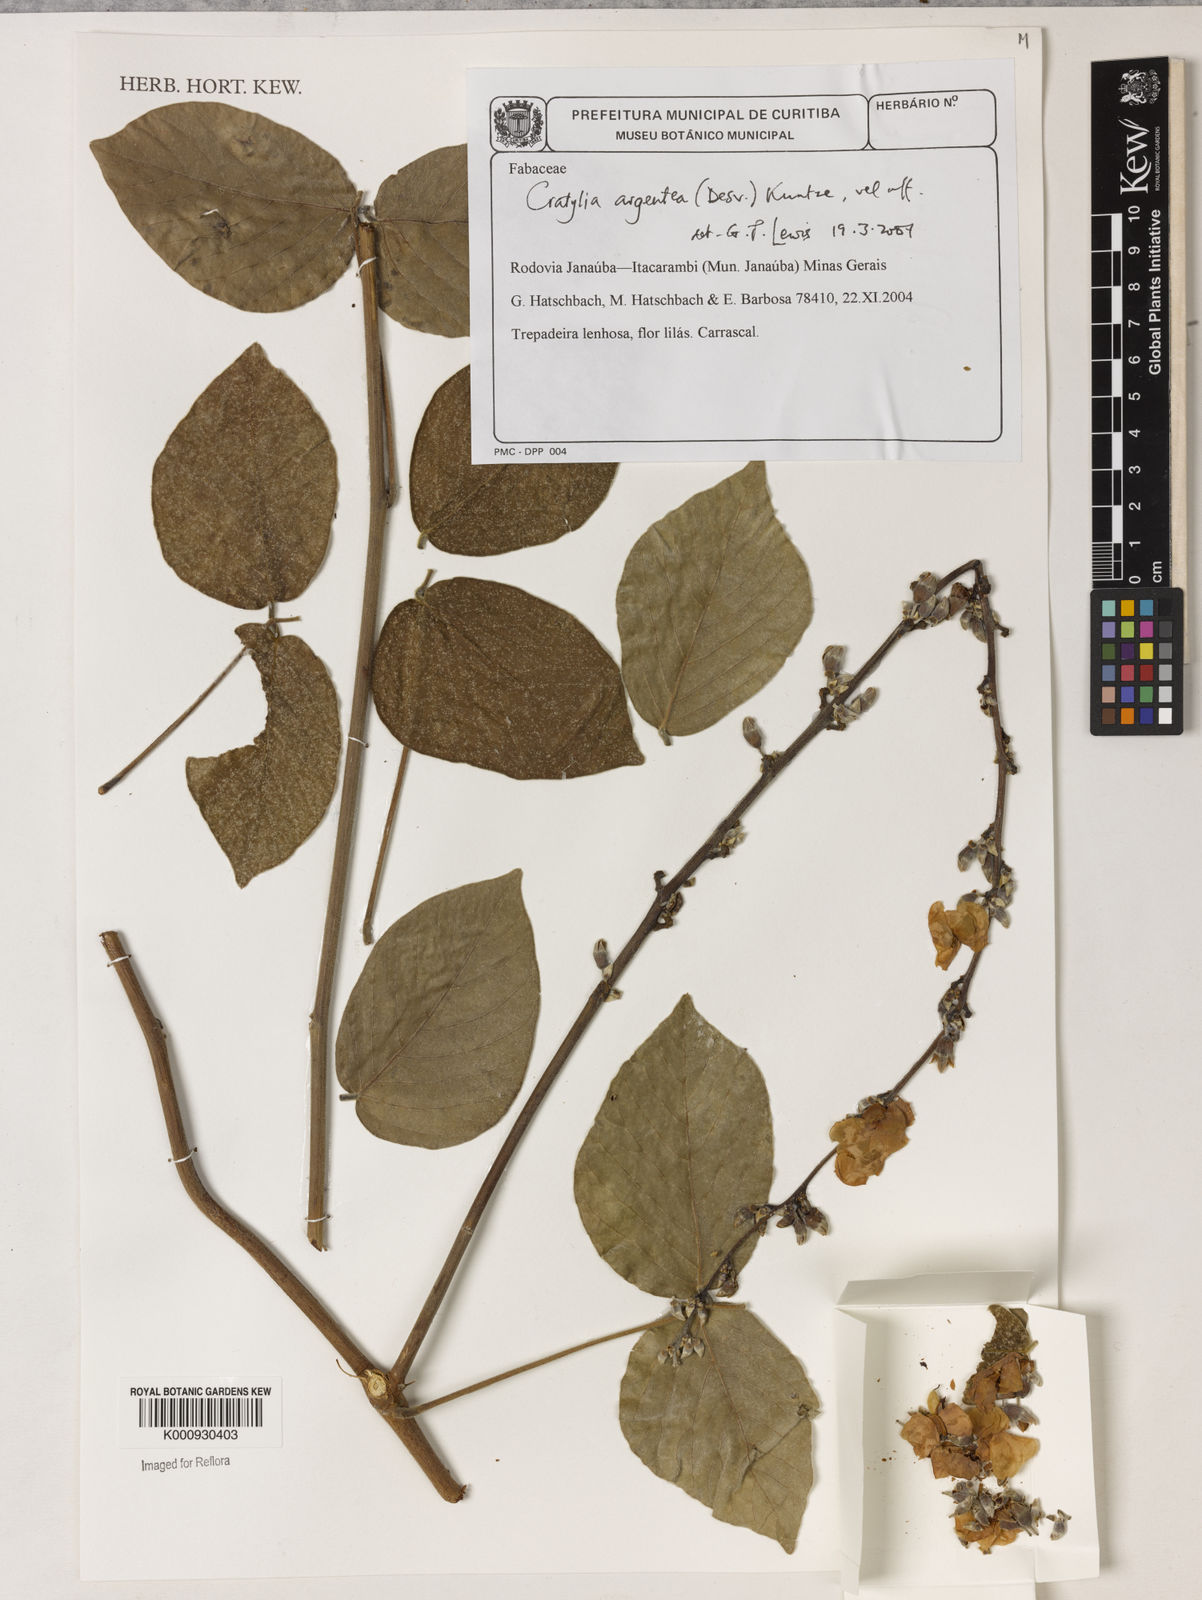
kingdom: Plantae
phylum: Tracheophyta
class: Magnoliopsida
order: Fabales
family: Fabaceae
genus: Cratylia
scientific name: Cratylia argentea
